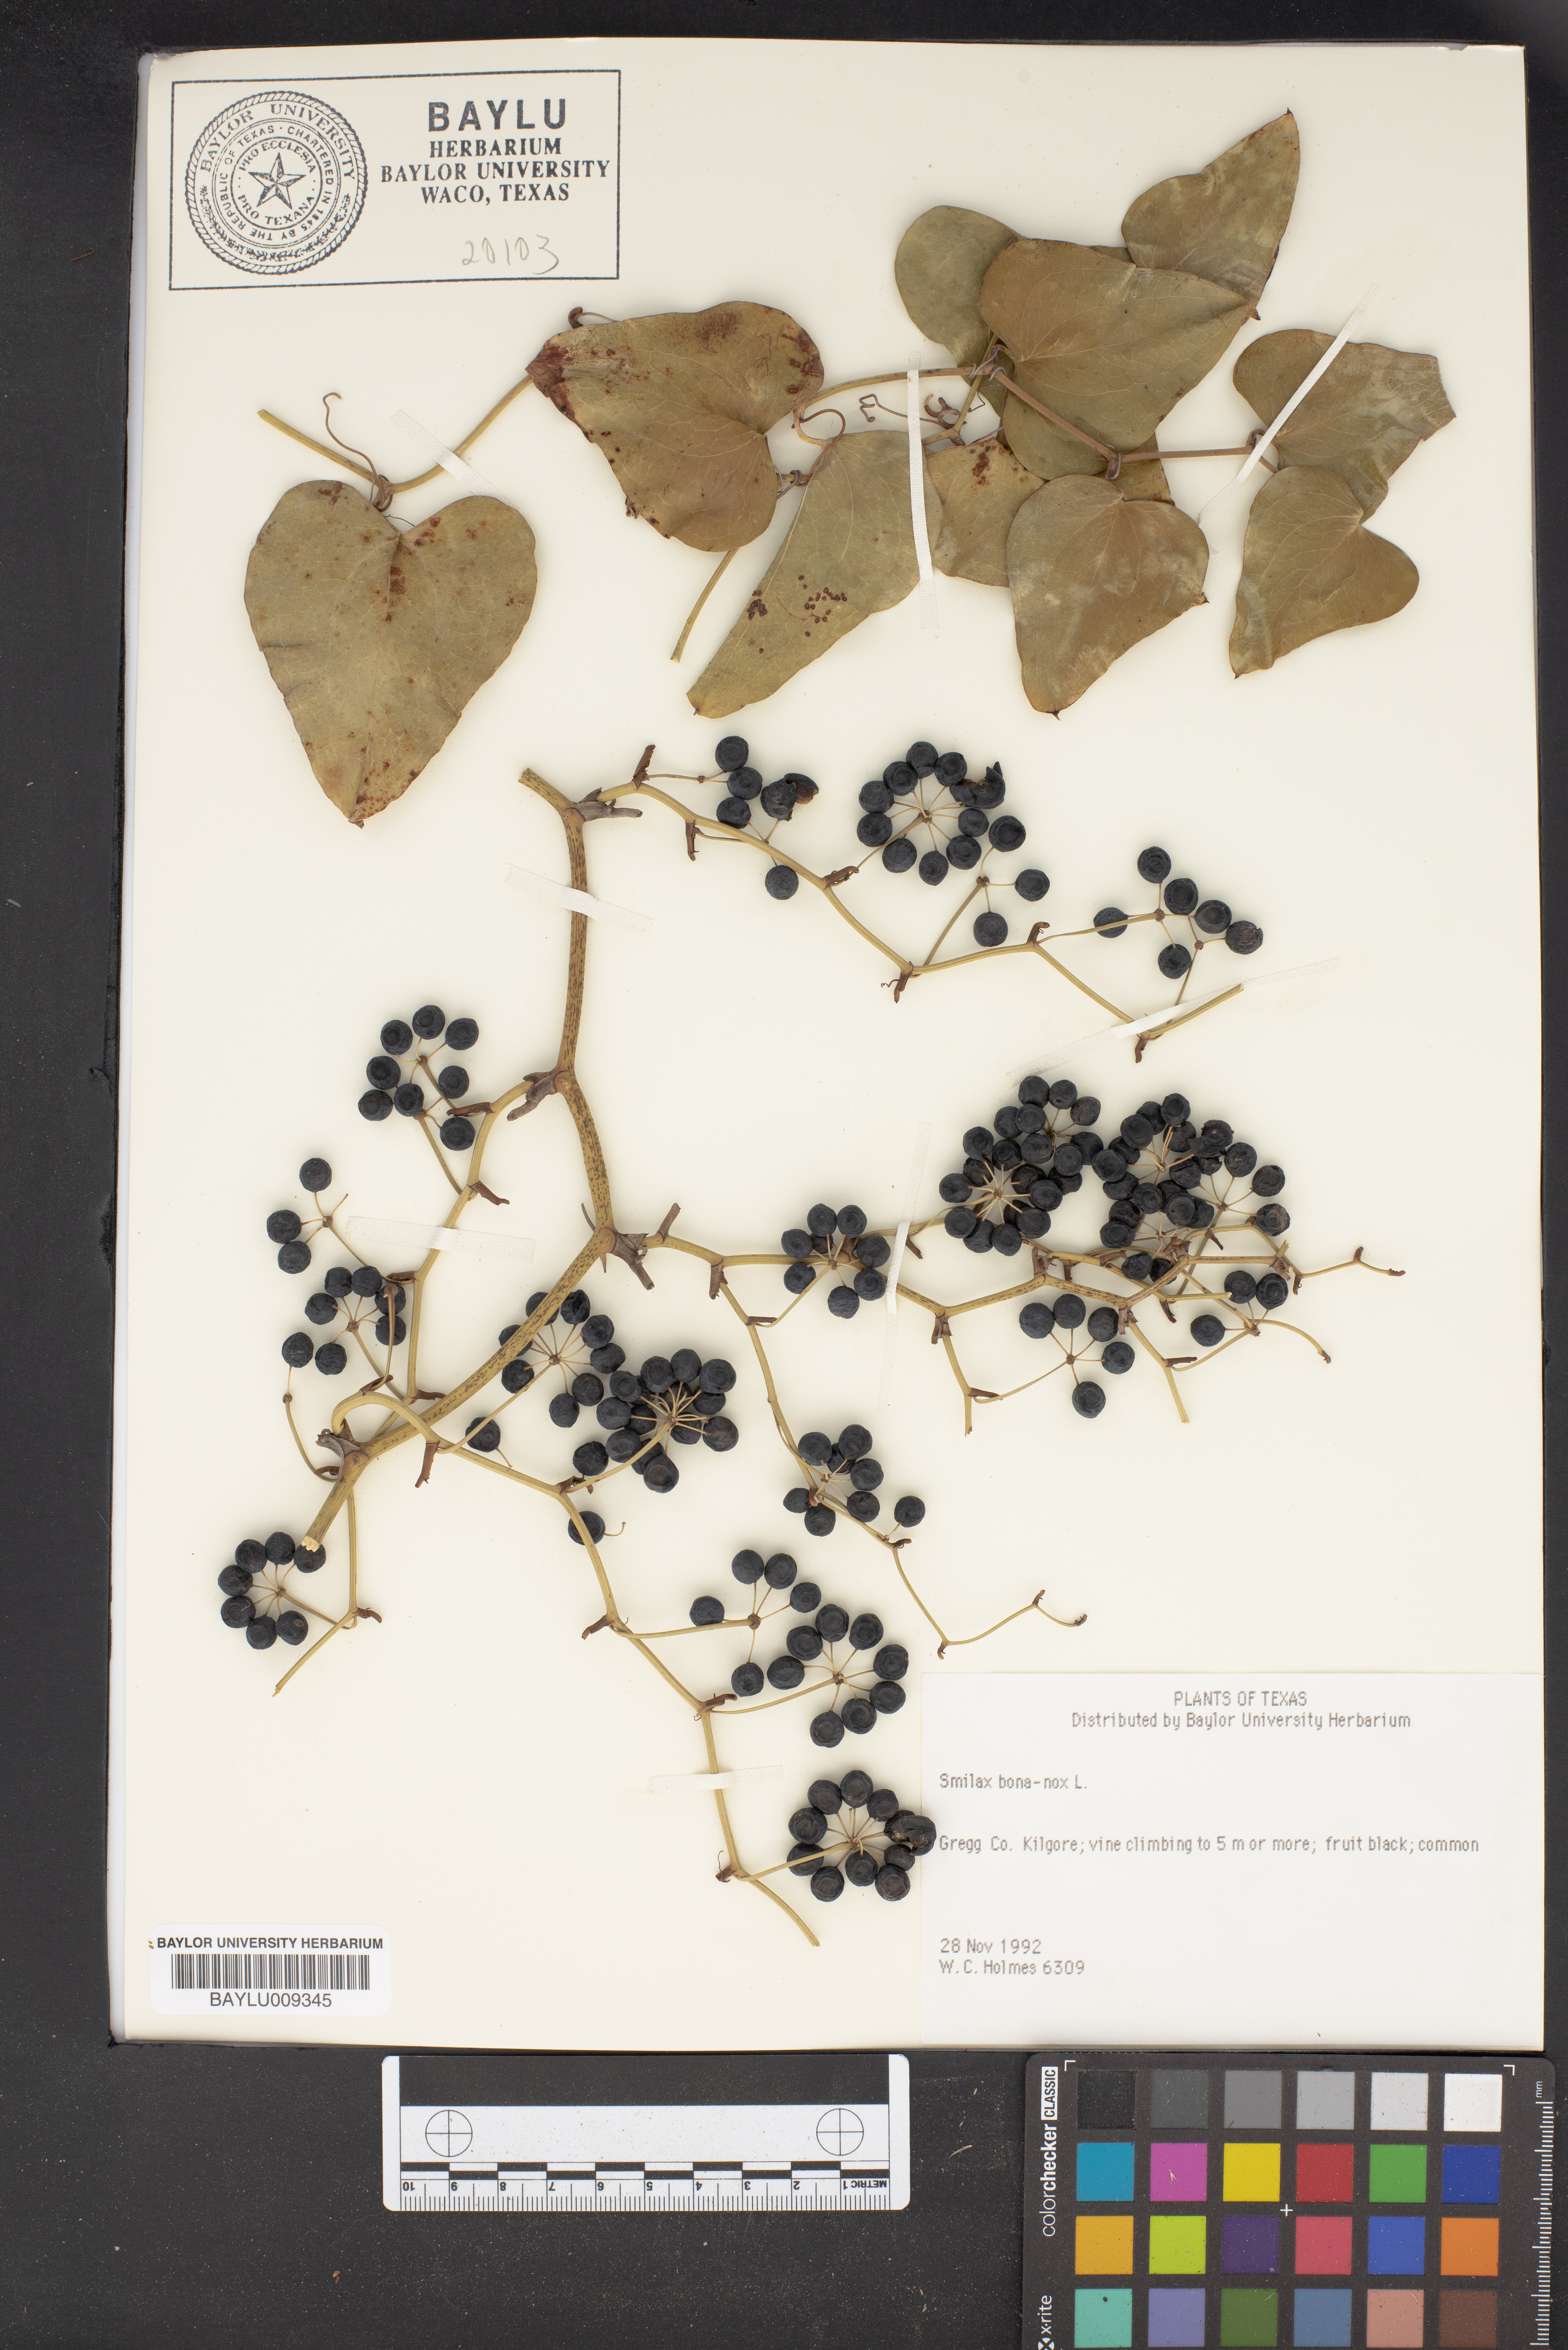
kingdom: Plantae
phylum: Tracheophyta
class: Liliopsida
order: Liliales
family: Smilacaceae
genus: Smilax
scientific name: Smilax bona-nox
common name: Catbrier
